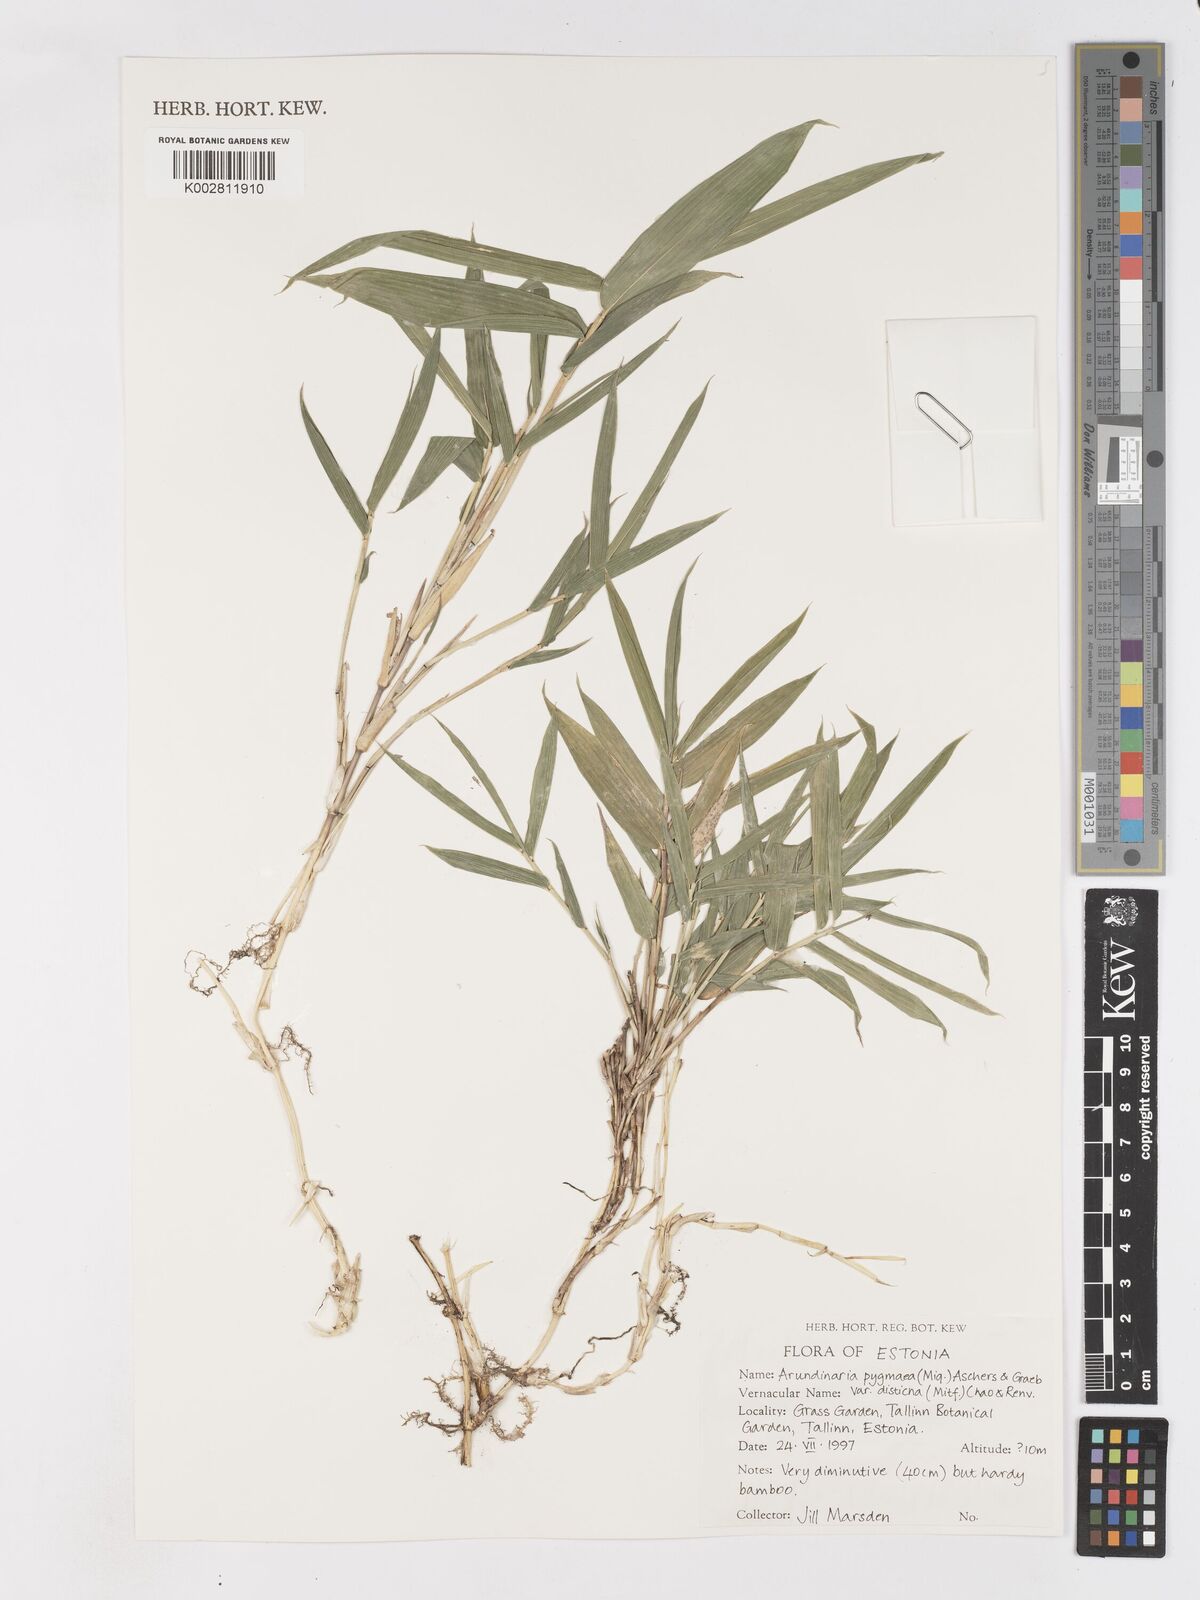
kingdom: Plantae
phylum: Tracheophyta
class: Liliopsida
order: Poales
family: Poaceae
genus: Pleioblastus
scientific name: Pleioblastus distichus
